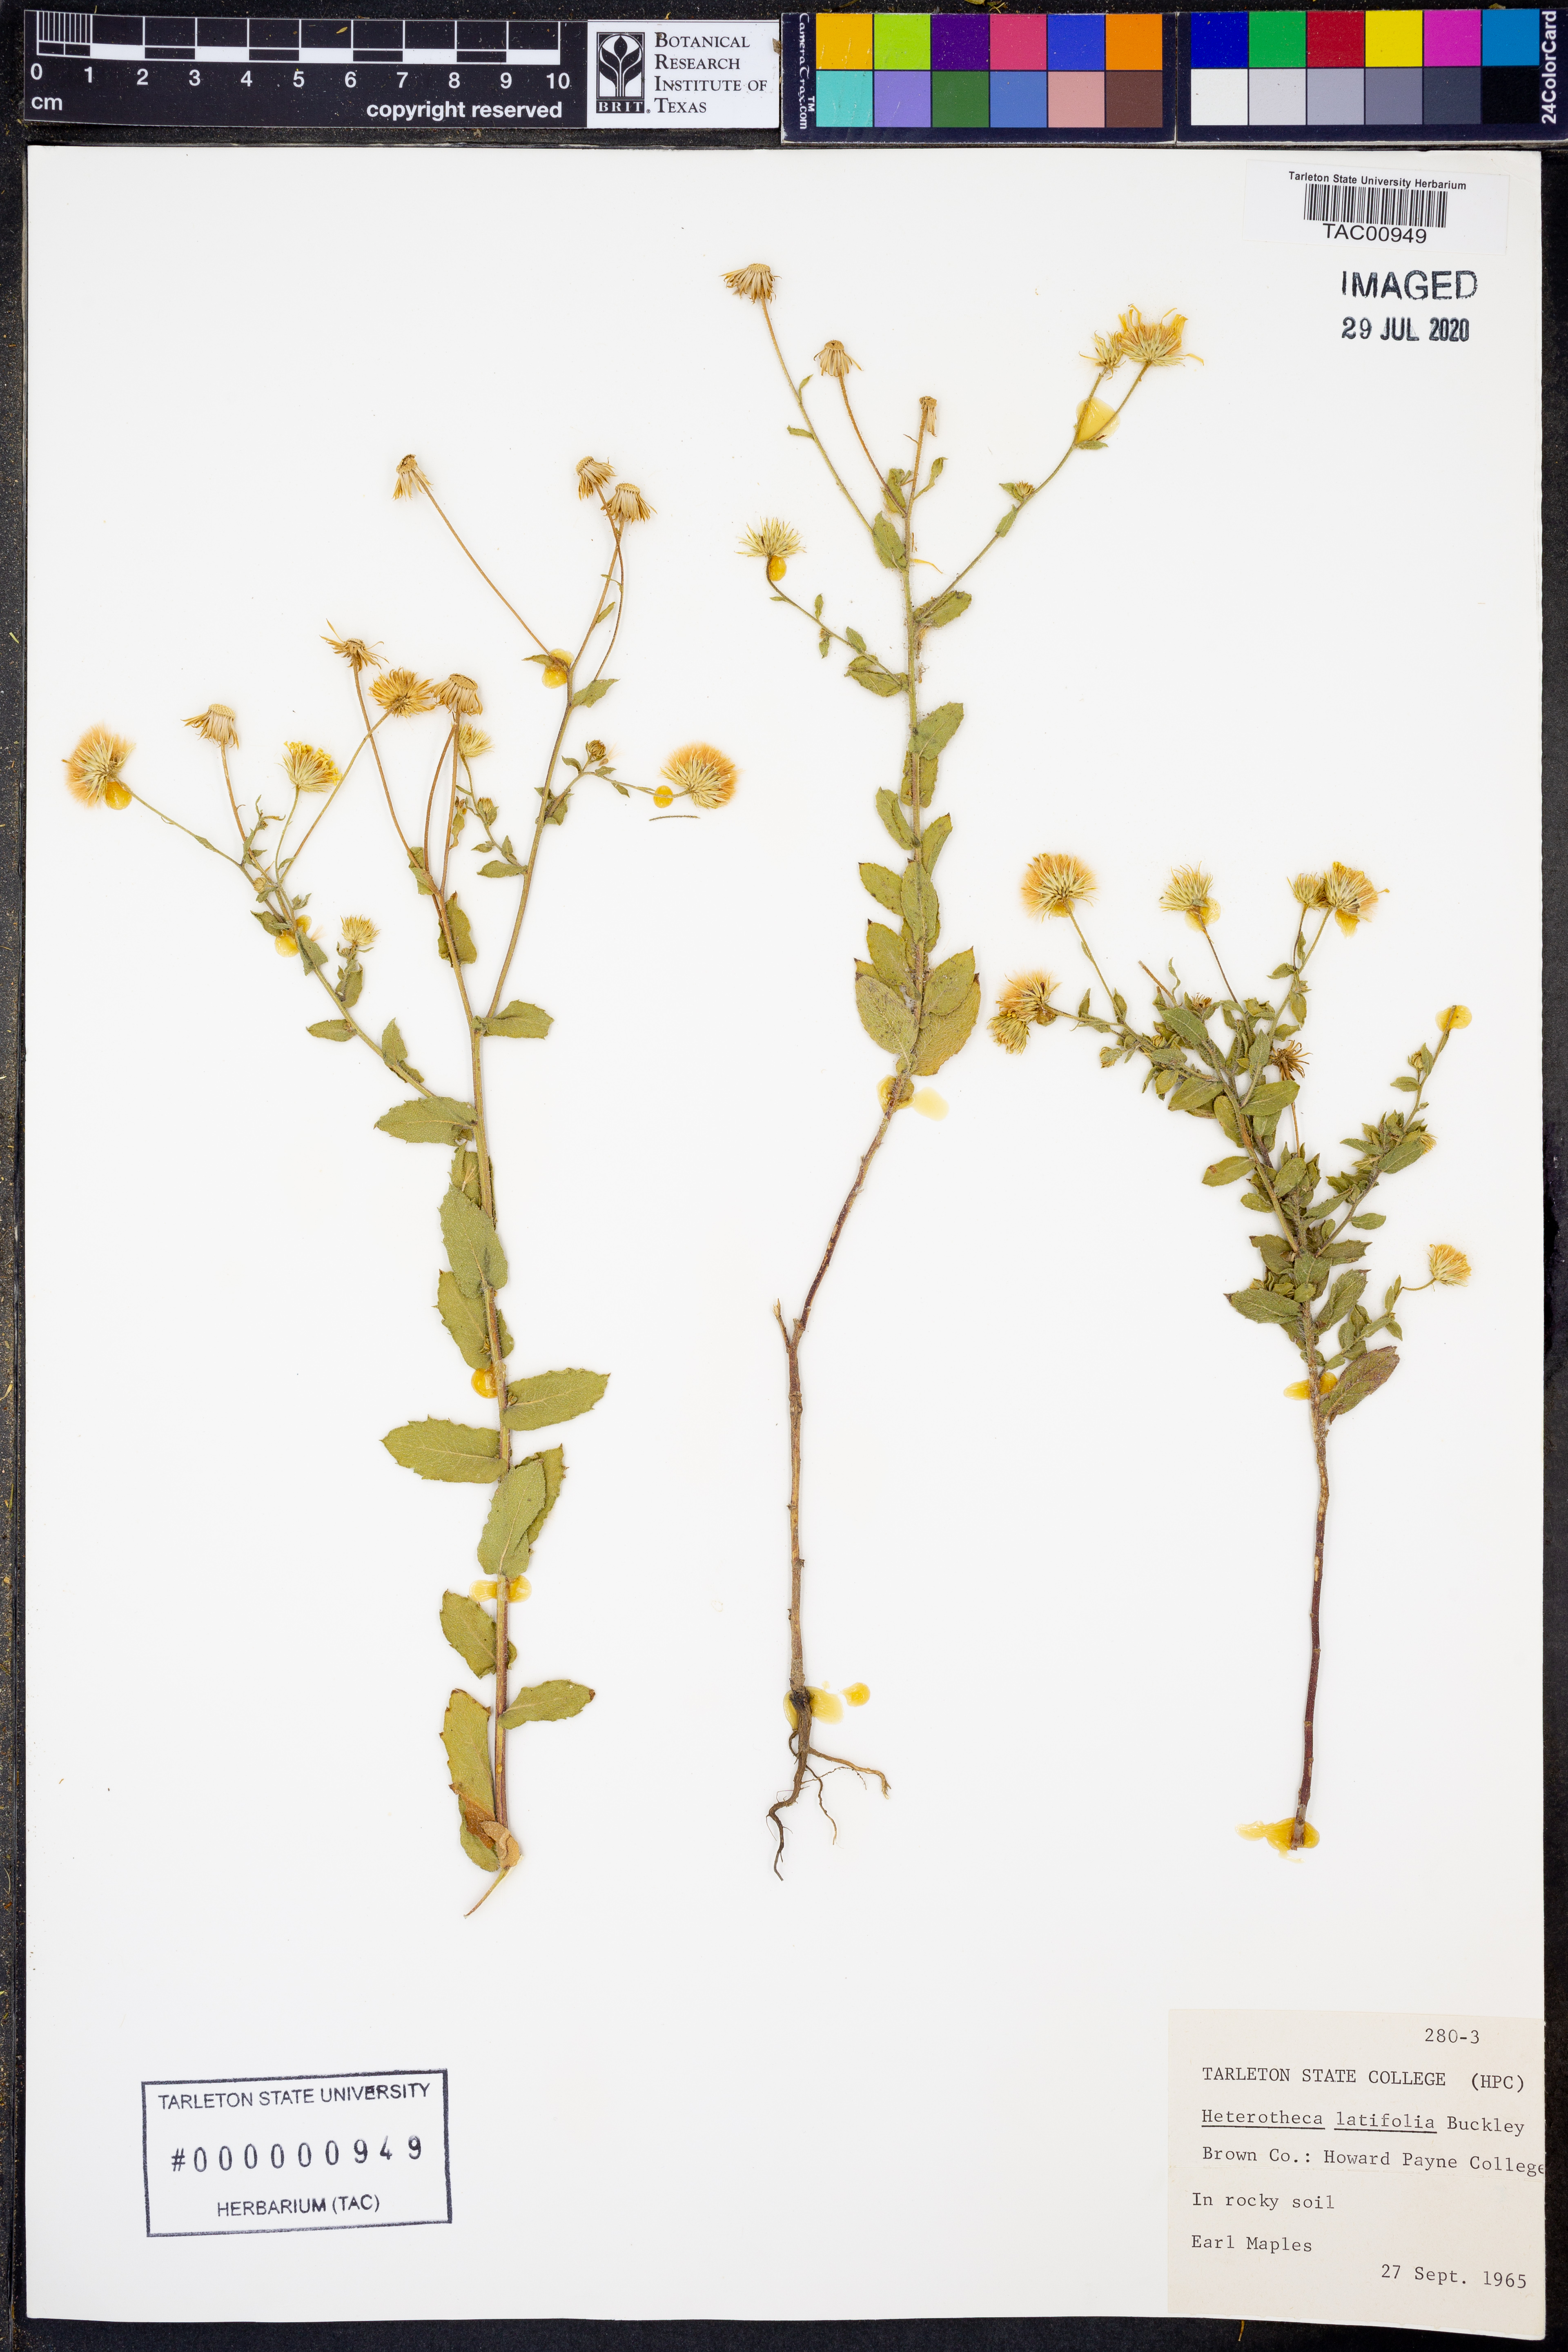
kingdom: Plantae
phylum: Tracheophyta
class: Magnoliopsida
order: Asterales
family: Asteraceae
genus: Heterotheca
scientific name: Heterotheca subaxillaris
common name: Camphorweed
